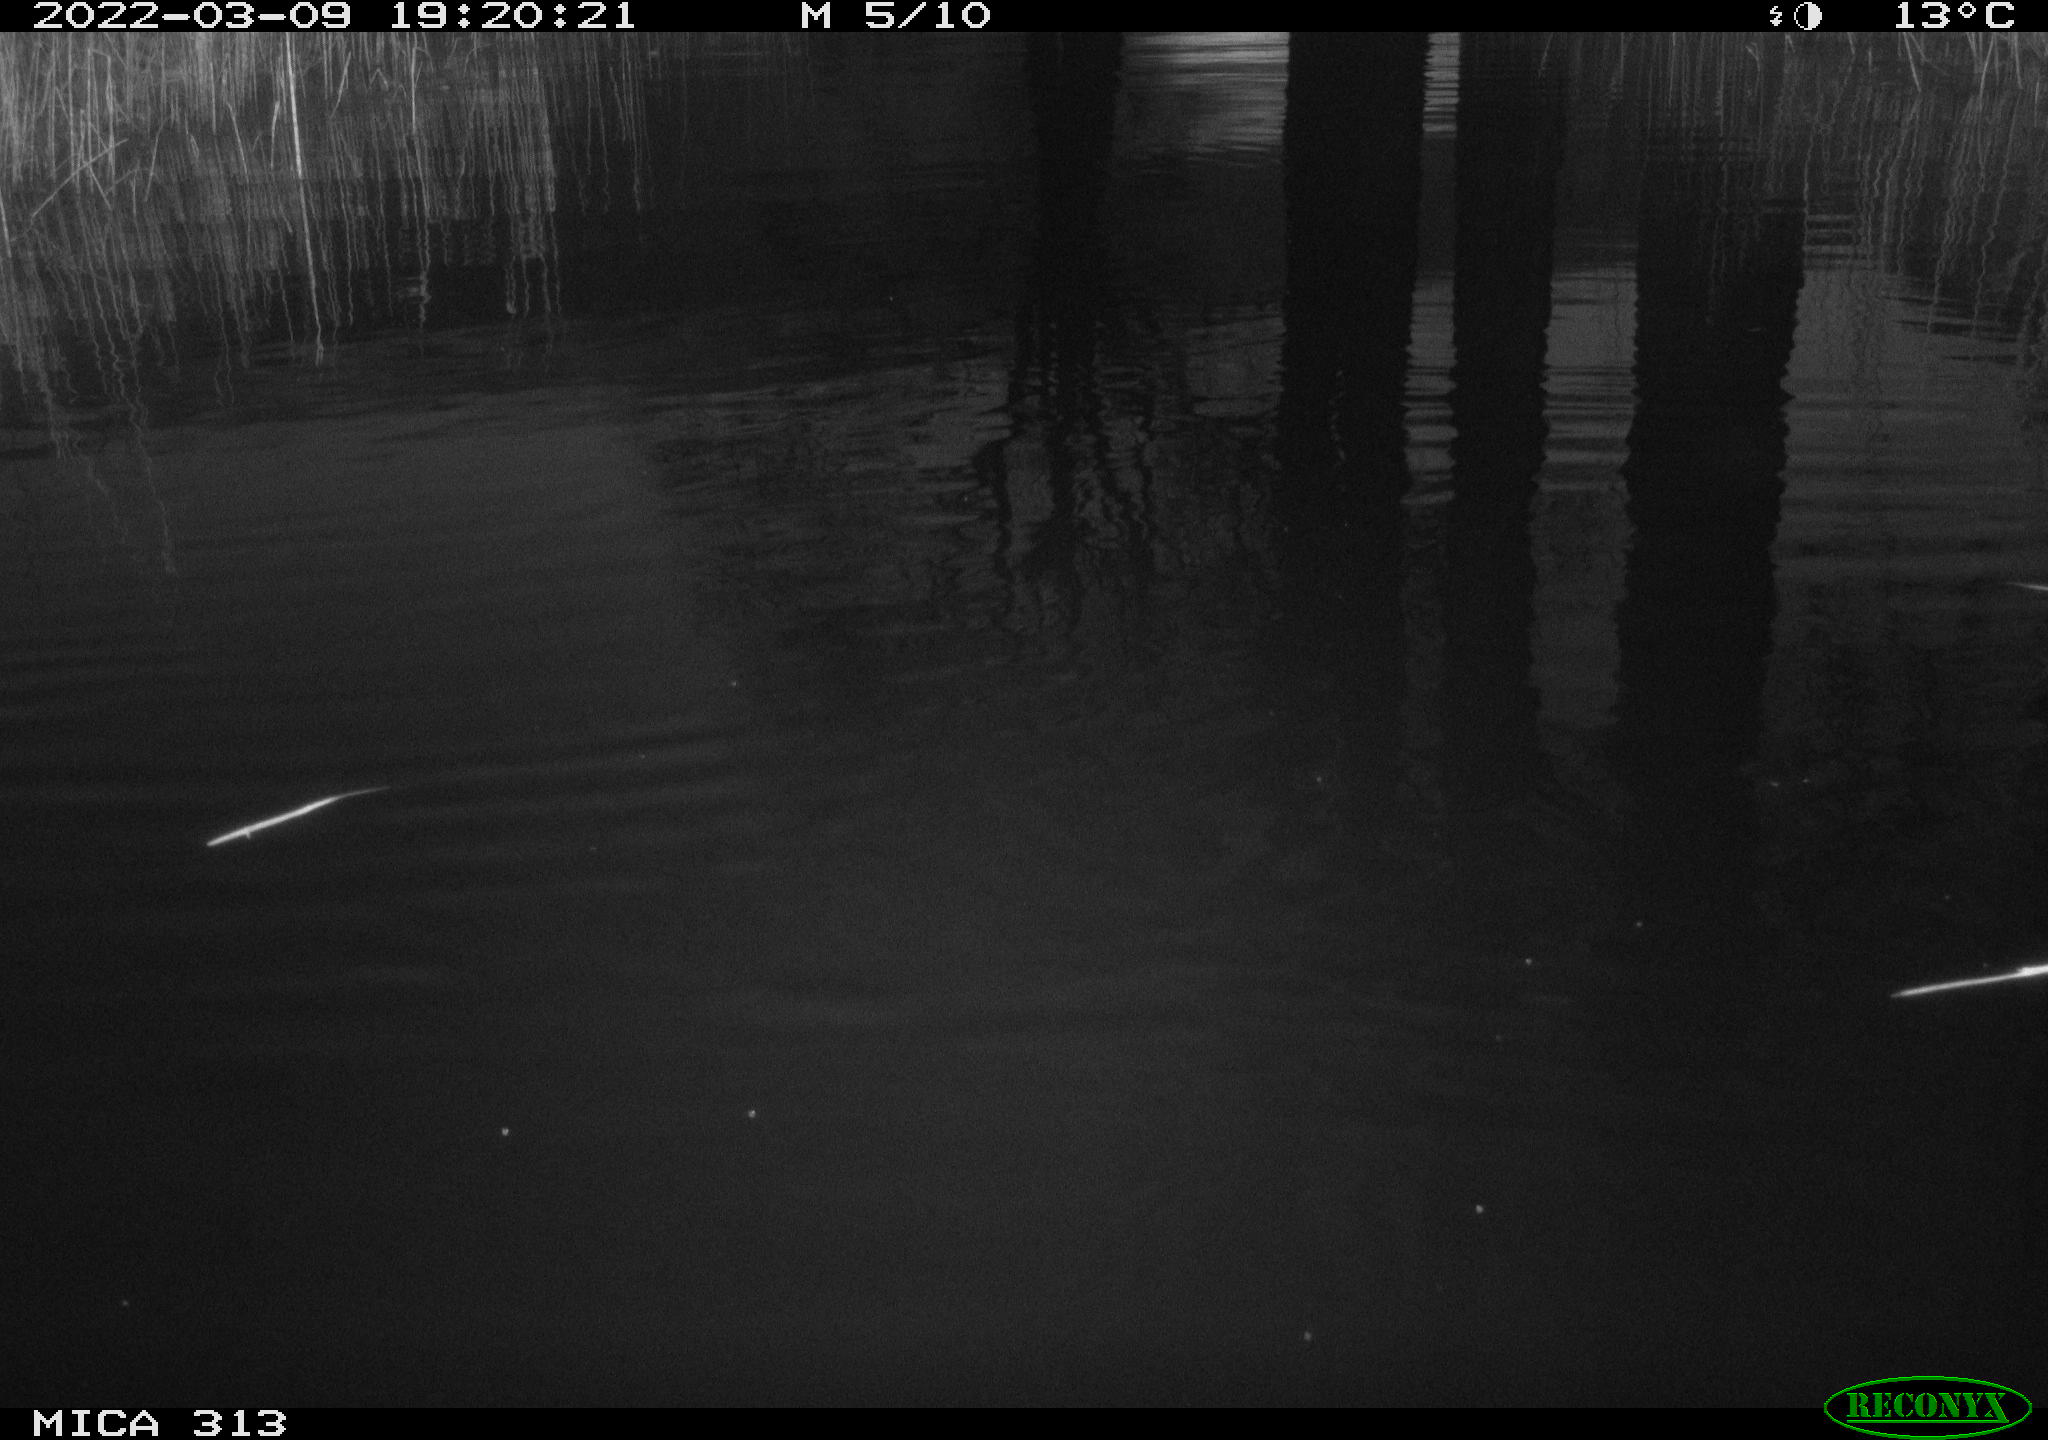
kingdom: Animalia
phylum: Chordata
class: Aves
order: Gruiformes
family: Rallidae
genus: Gallinula
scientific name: Gallinula chloropus
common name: Common moorhen
